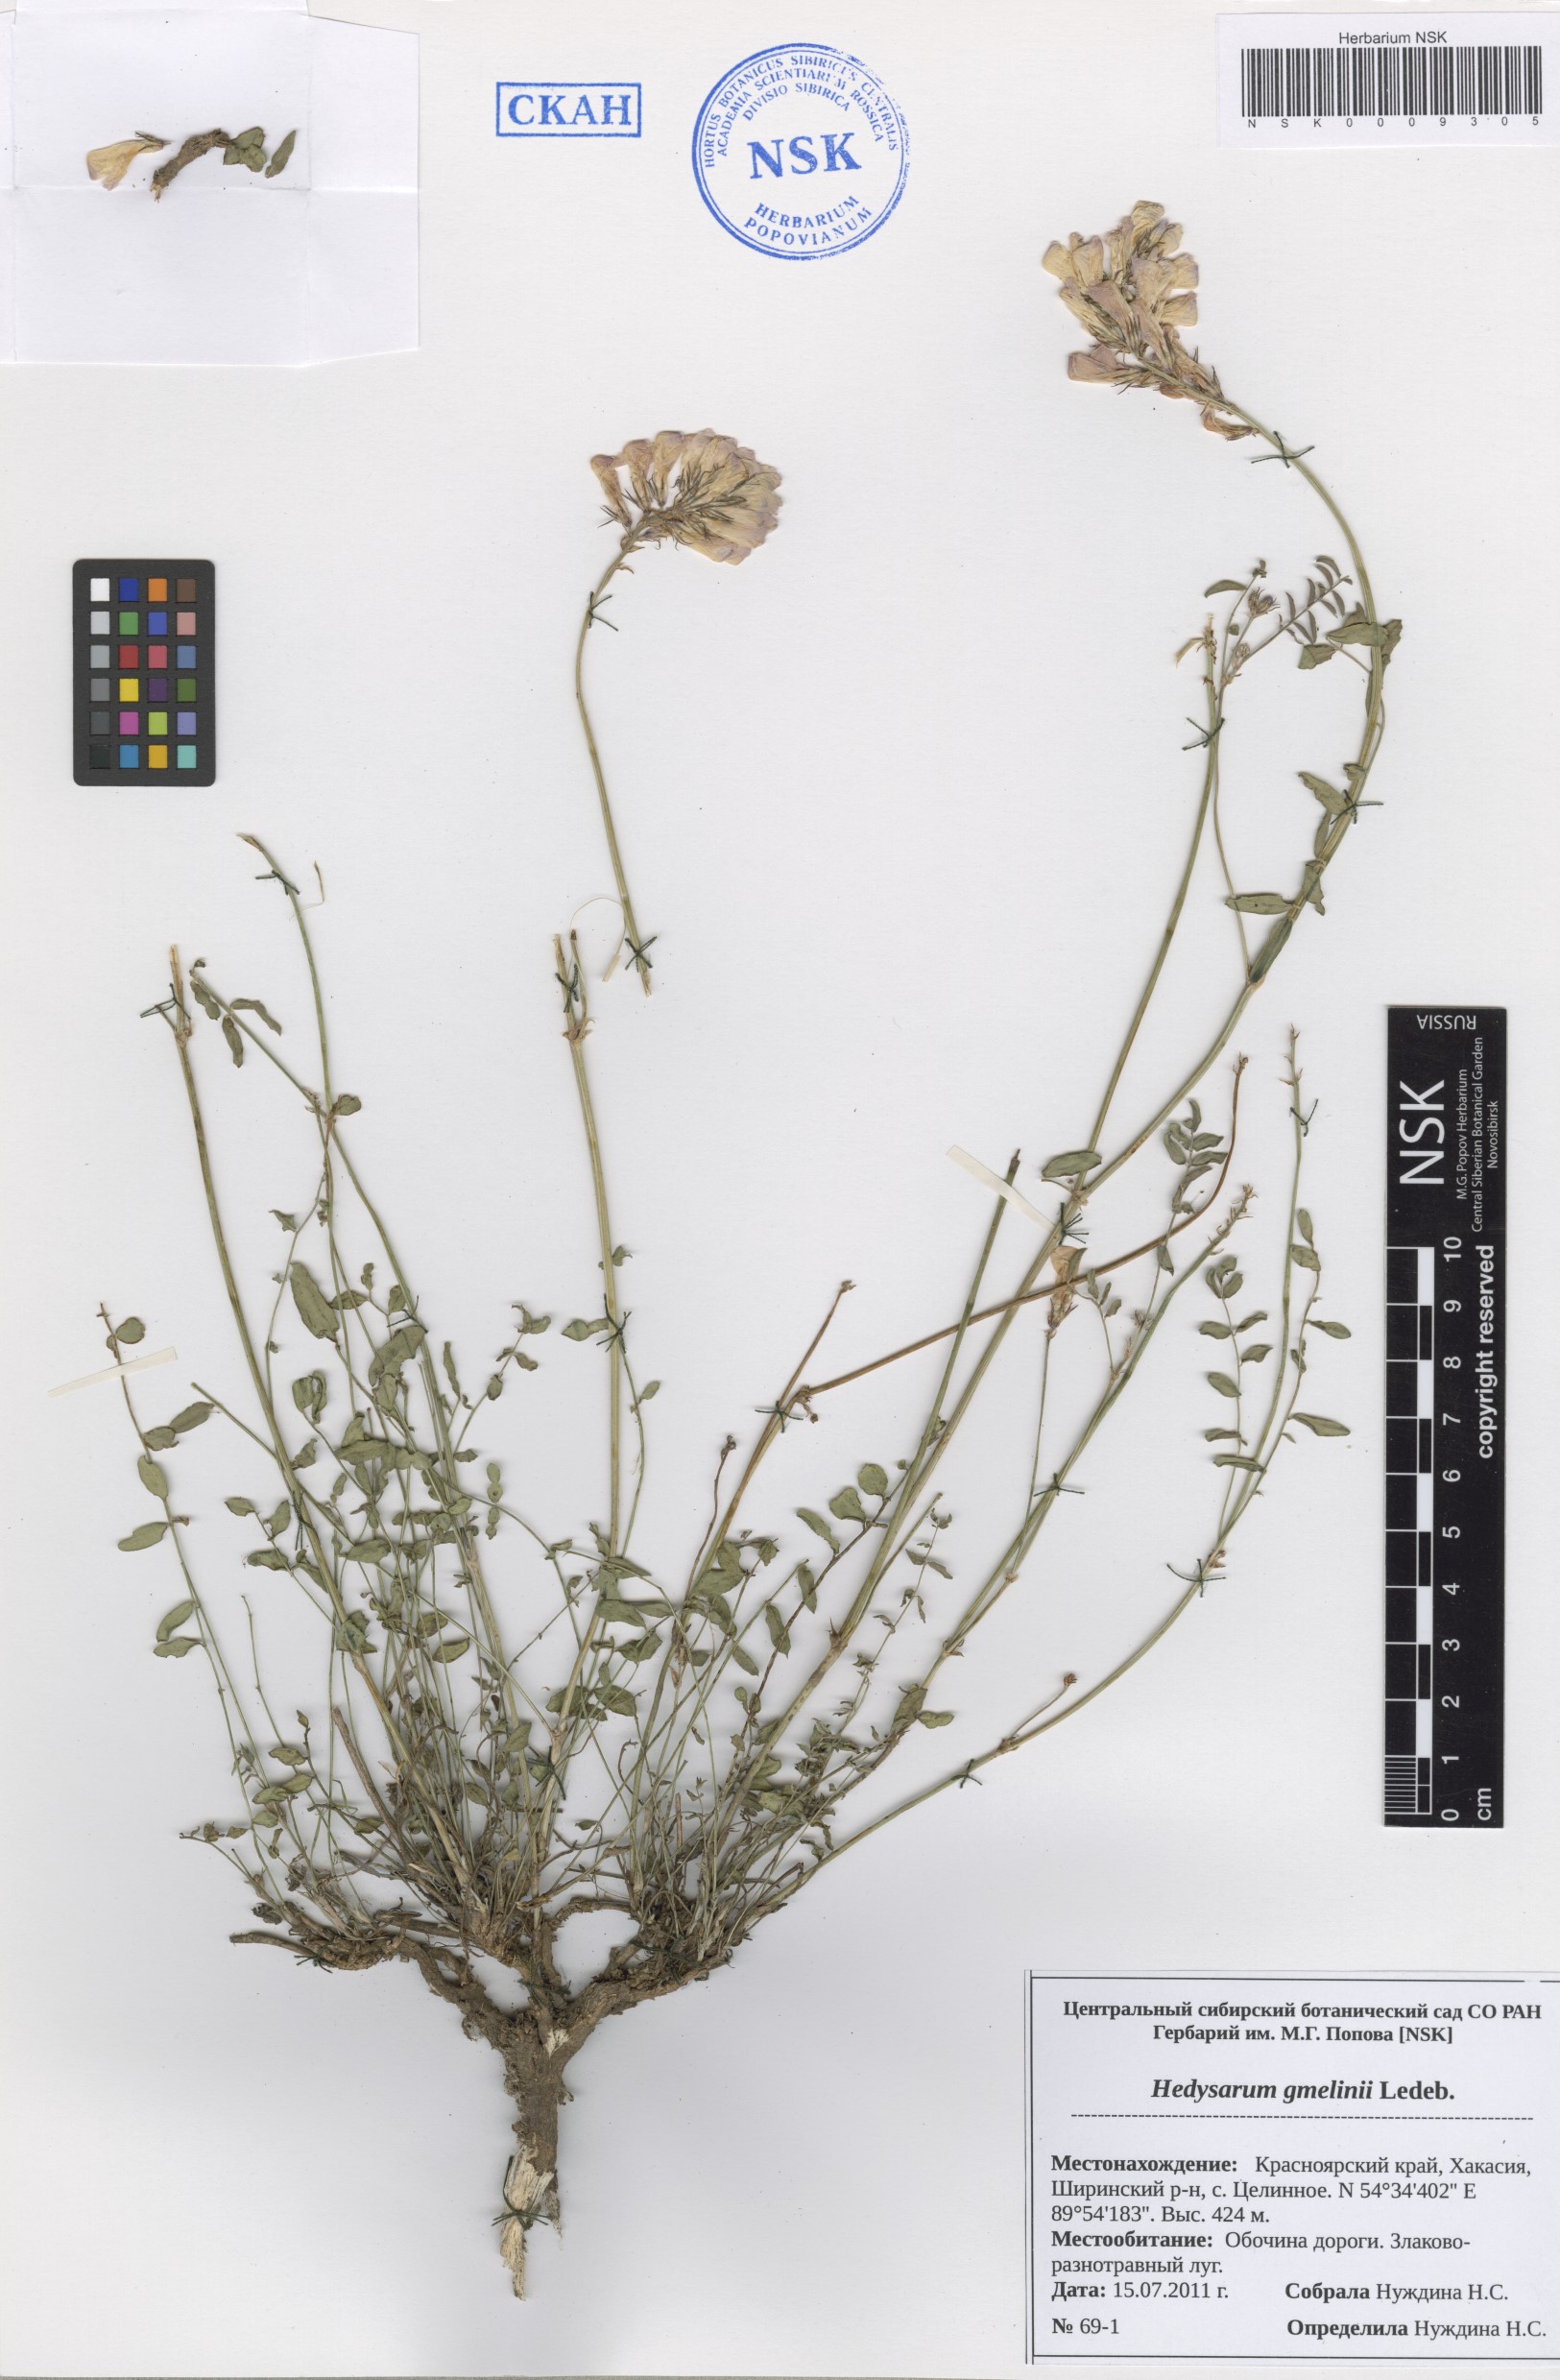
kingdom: Plantae
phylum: Tracheophyta
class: Magnoliopsida
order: Fabales
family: Fabaceae
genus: Hedysarum
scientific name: Hedysarum gmelinii
